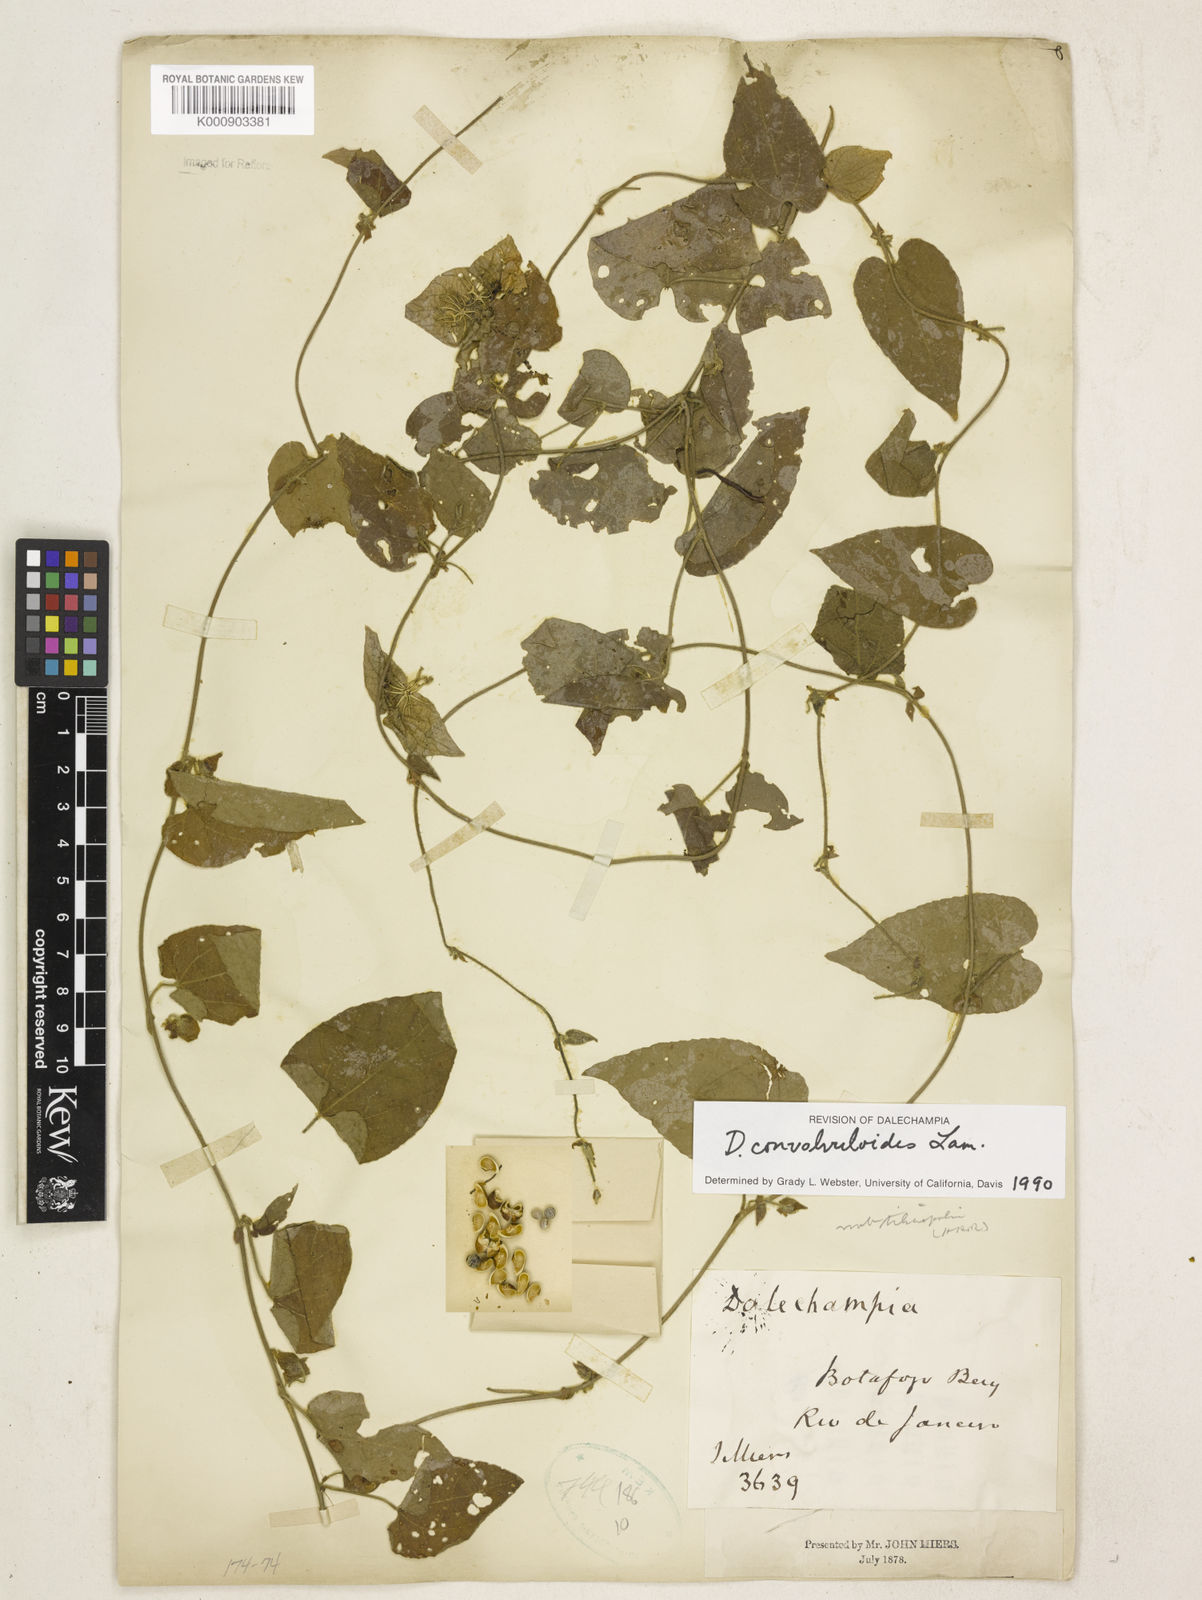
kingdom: Plantae
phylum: Tracheophyta
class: Magnoliopsida
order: Malpighiales
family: Euphorbiaceae
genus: Dalechampia
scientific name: Dalechampia
